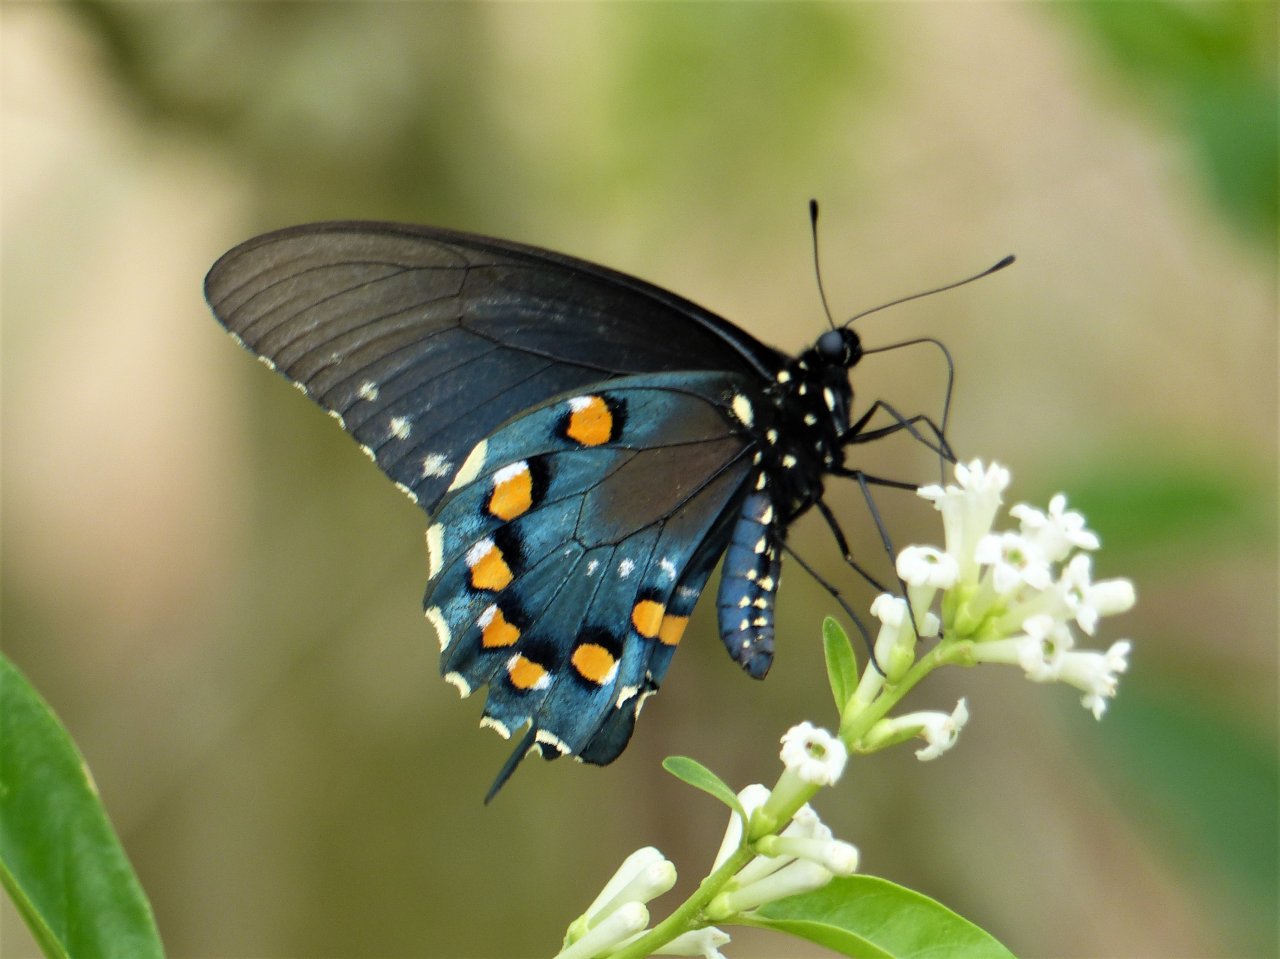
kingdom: Animalia
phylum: Arthropoda
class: Insecta
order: Lepidoptera
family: Papilionidae
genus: Battus
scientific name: Battus philenor
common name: Pipevine Swallowtail
